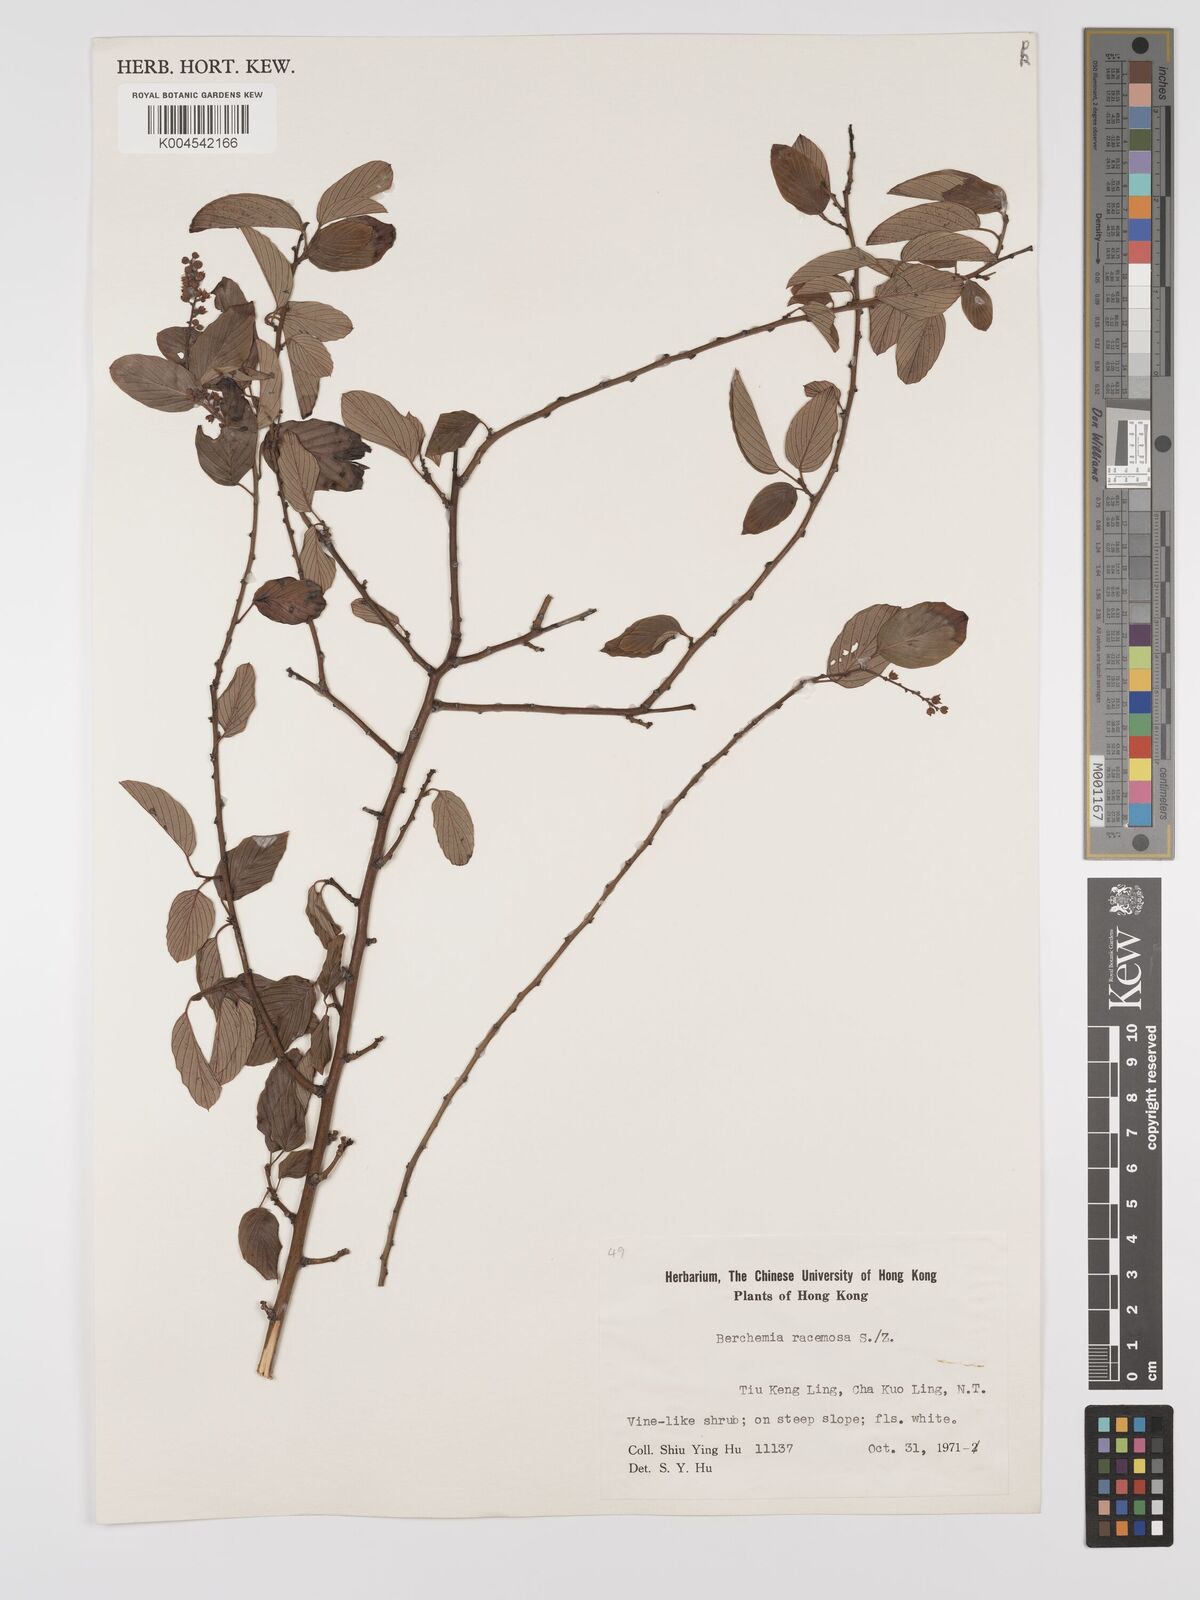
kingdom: Plantae
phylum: Tracheophyta
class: Magnoliopsida
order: Rosales
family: Rhamnaceae
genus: Berchemia
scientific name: Berchemia floribunda
